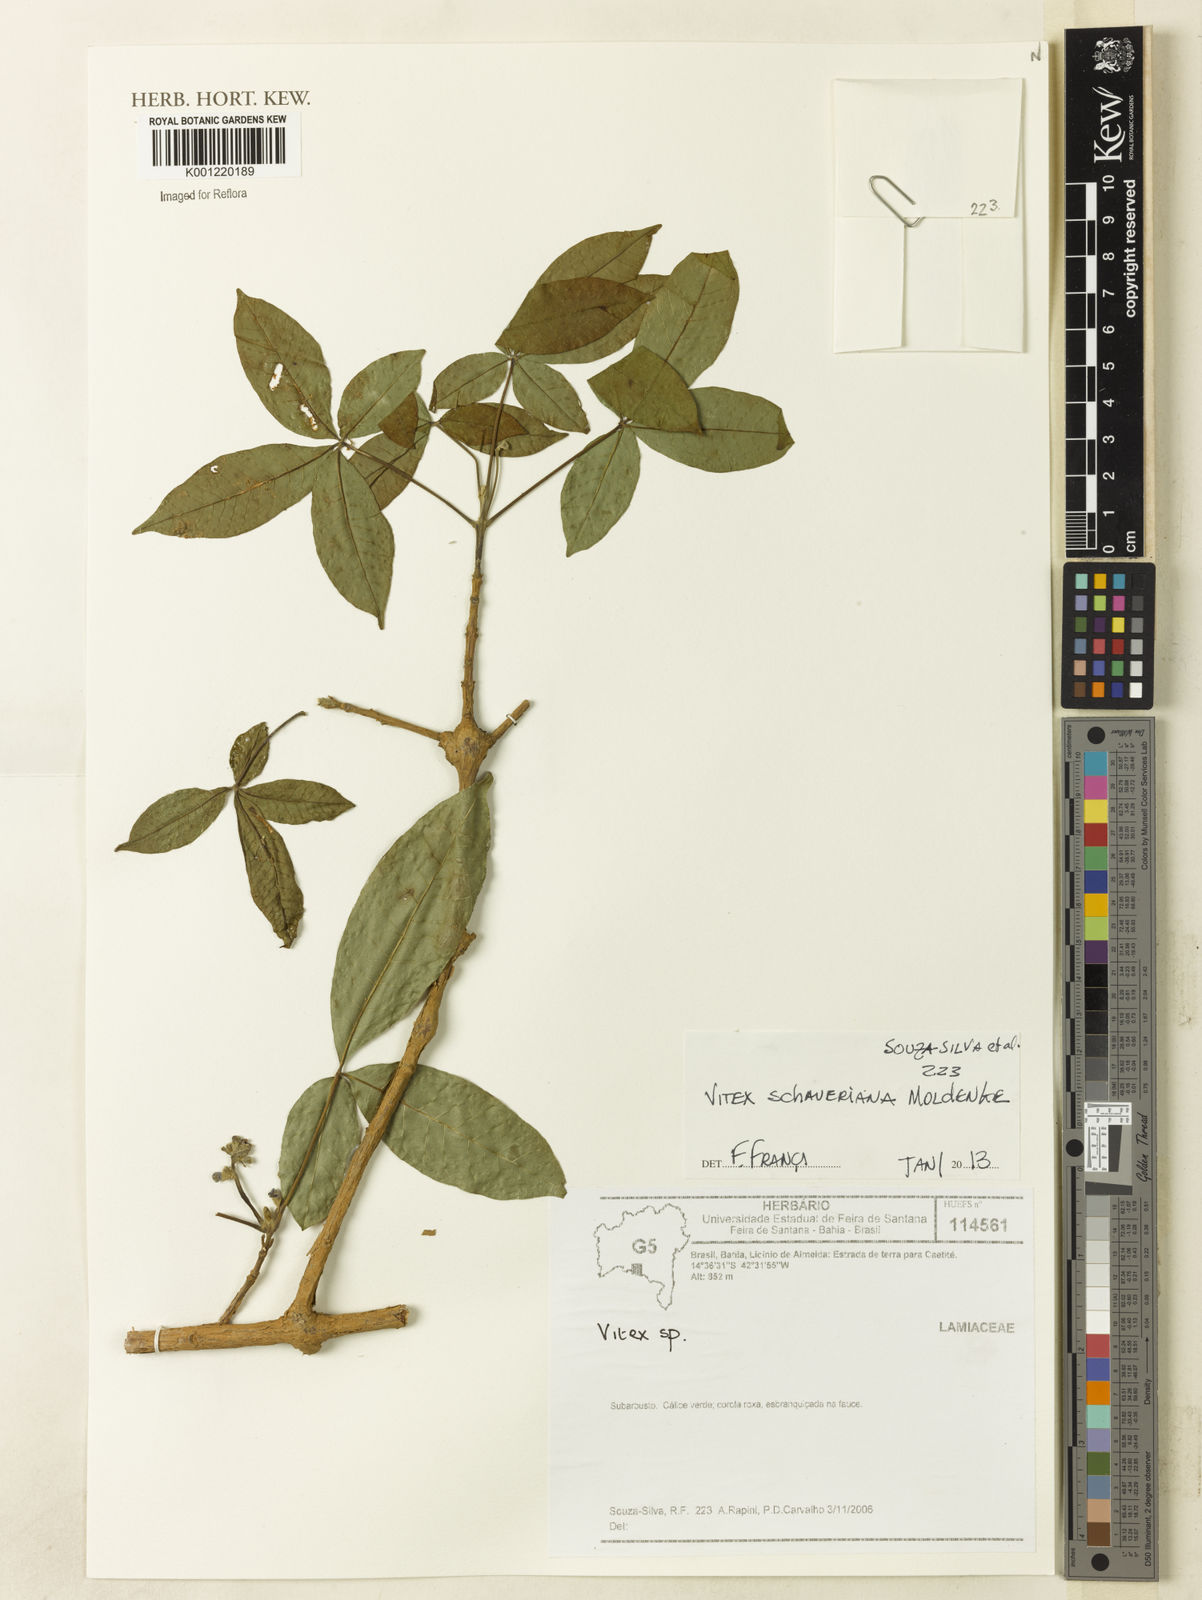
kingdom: Plantae
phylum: Tracheophyta
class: Magnoliopsida
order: Lamiales
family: Lamiaceae
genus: Vitex
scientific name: Vitex schaueriana
